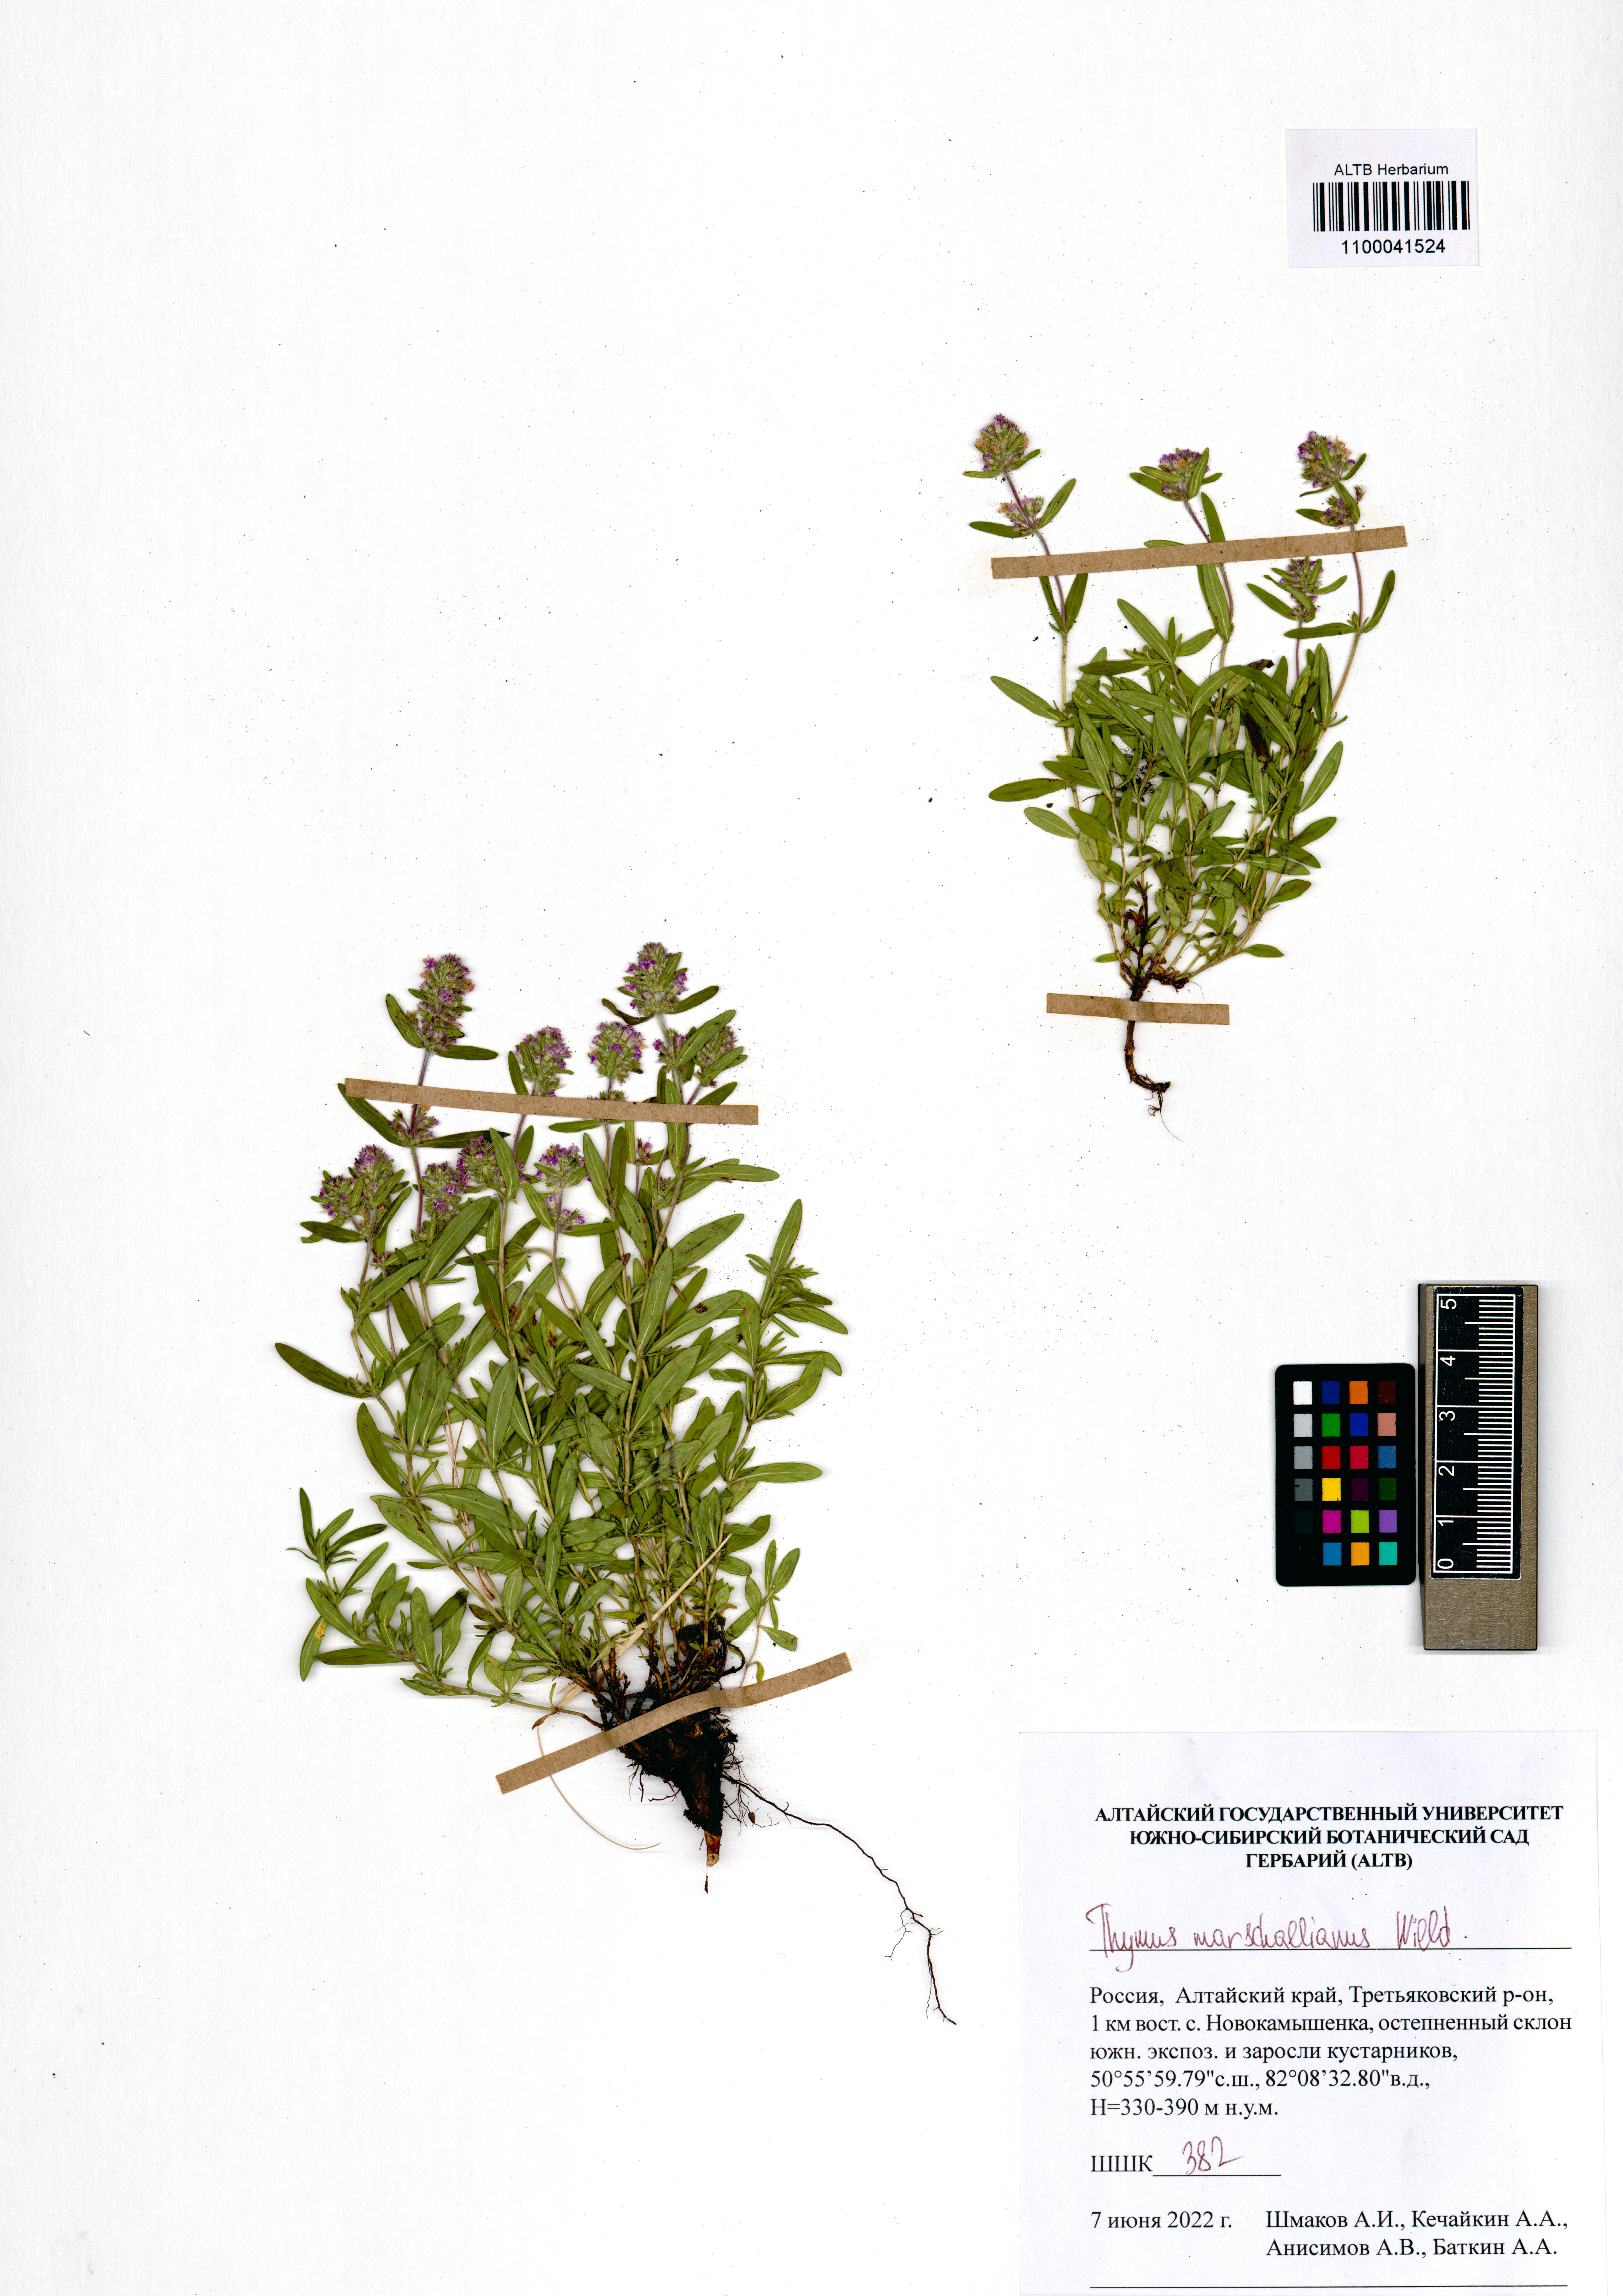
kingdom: Plantae
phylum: Tracheophyta
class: Magnoliopsida
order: Lamiales
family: Lamiaceae
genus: Thymus
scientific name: Thymus pannonicus
